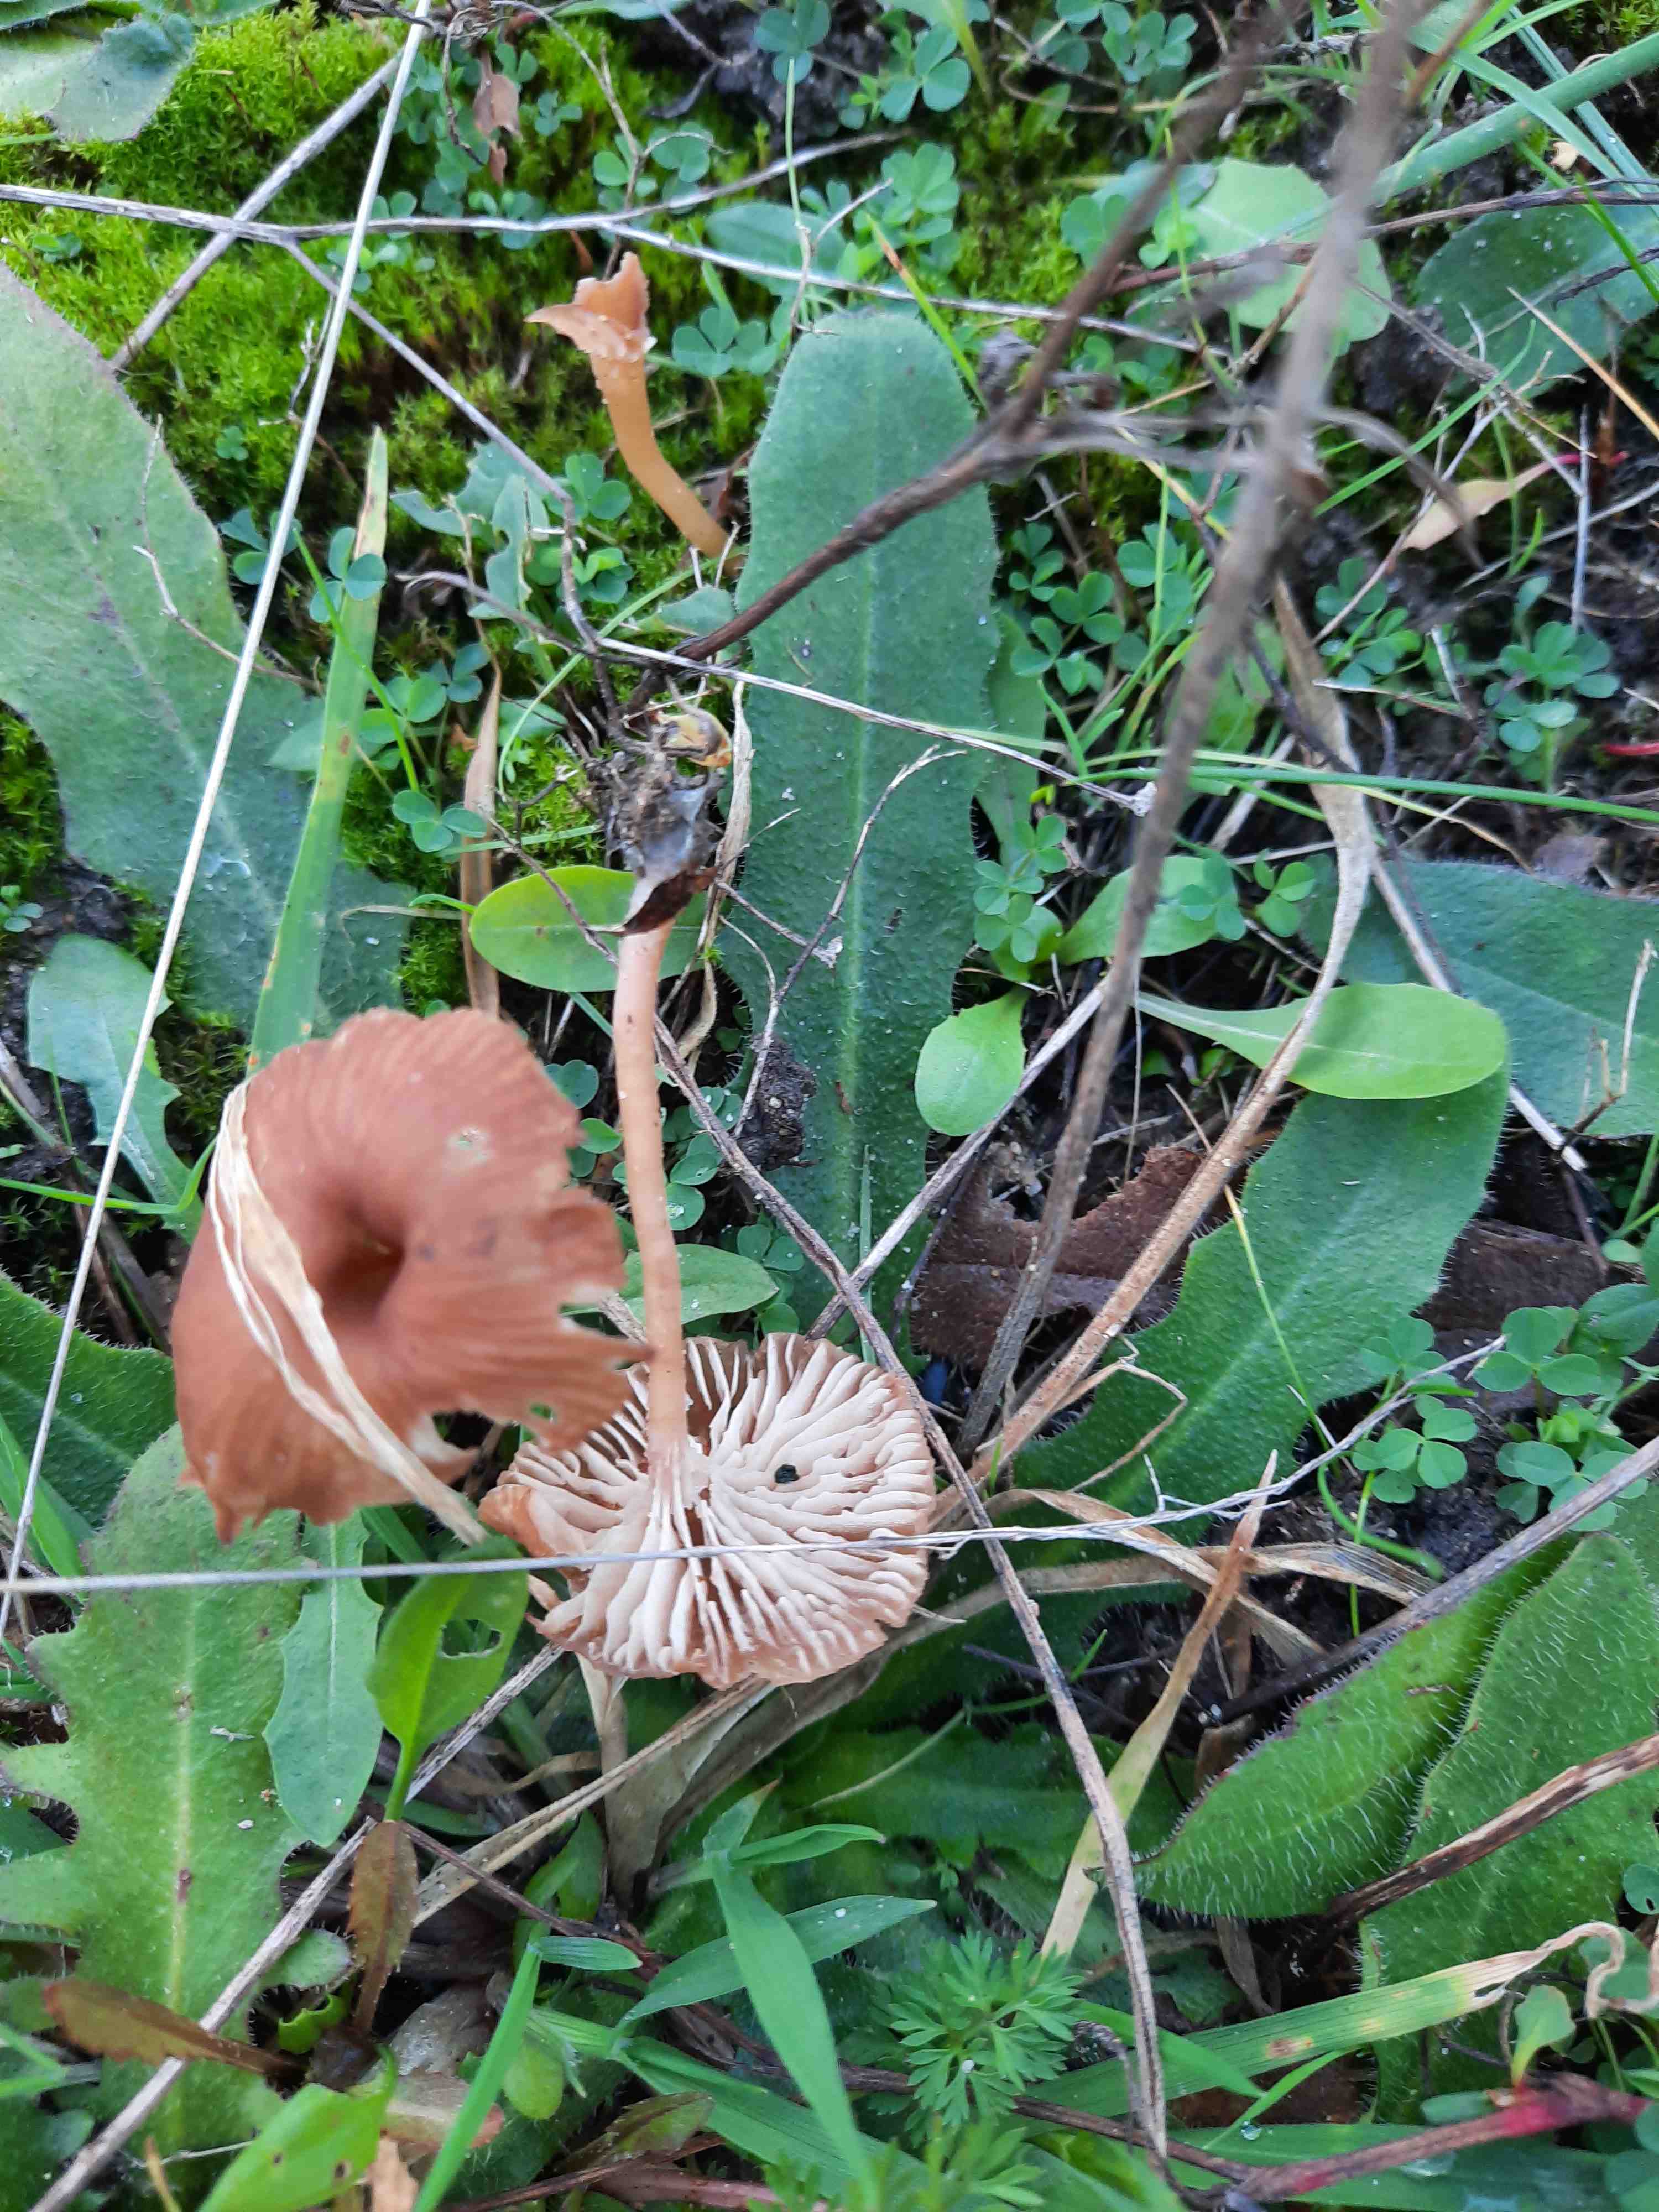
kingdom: Fungi
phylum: Basidiomycota
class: Agaricomycetes
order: Agaricales
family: Tricholomataceae
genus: Omphalina
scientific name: Omphalina pyxidata
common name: rødbrun navlehat
